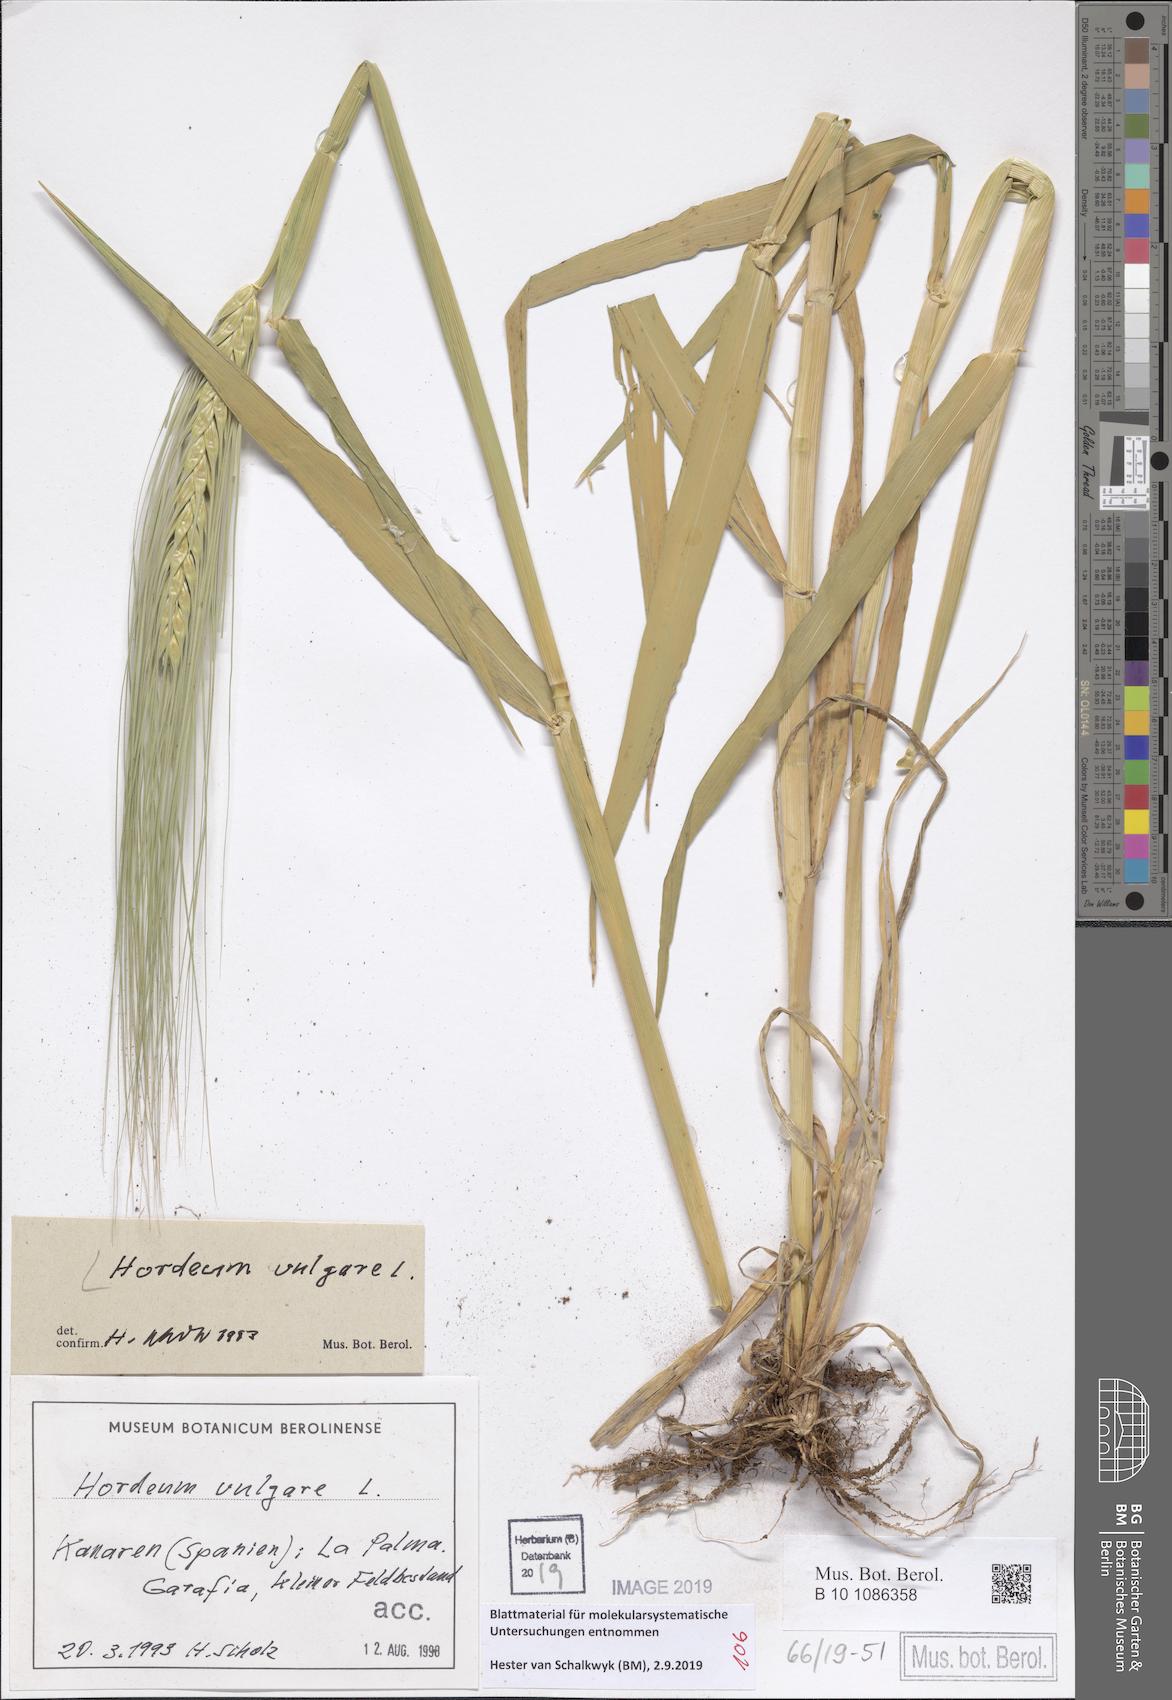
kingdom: Plantae
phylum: Tracheophyta
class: Liliopsida
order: Poales
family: Poaceae
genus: Hordeum
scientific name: Hordeum vulgare
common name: Common barley
